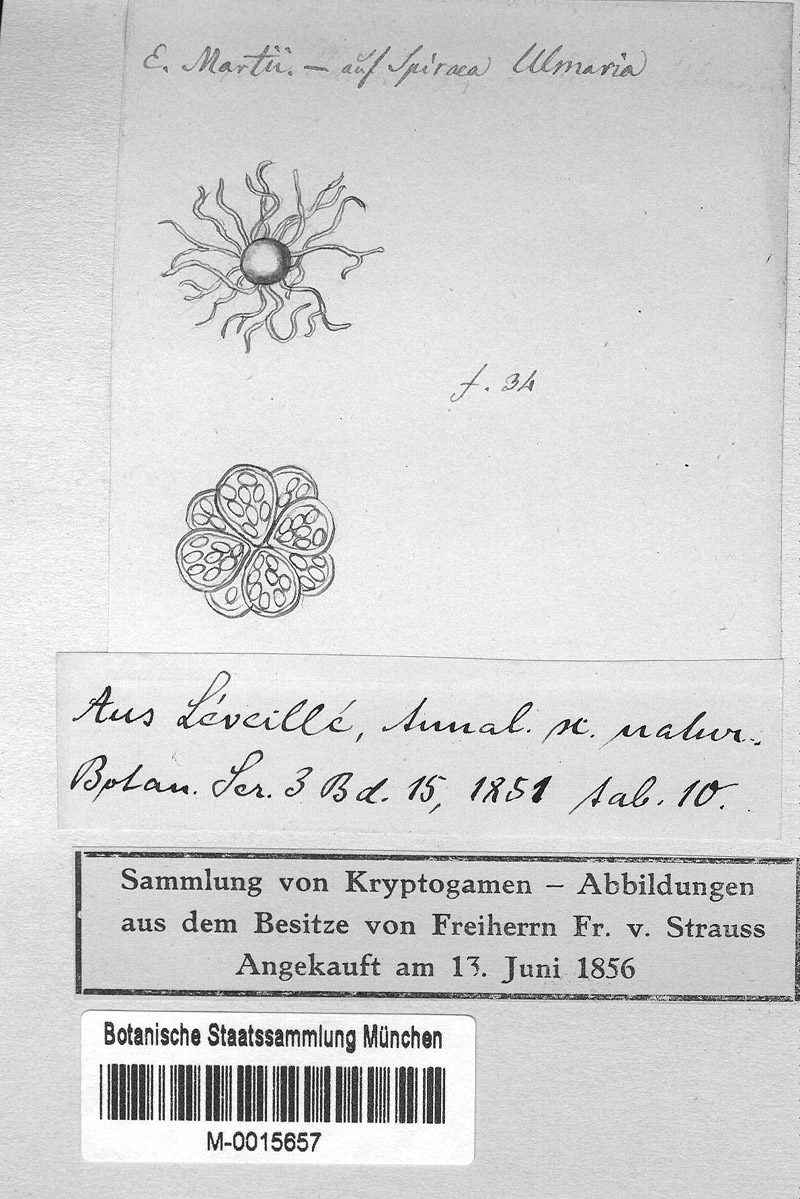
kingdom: Fungi
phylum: Ascomycota
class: Leotiomycetes
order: Helotiales
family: Erysiphaceae
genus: Erysiphe
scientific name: Erysiphe ulmariae
